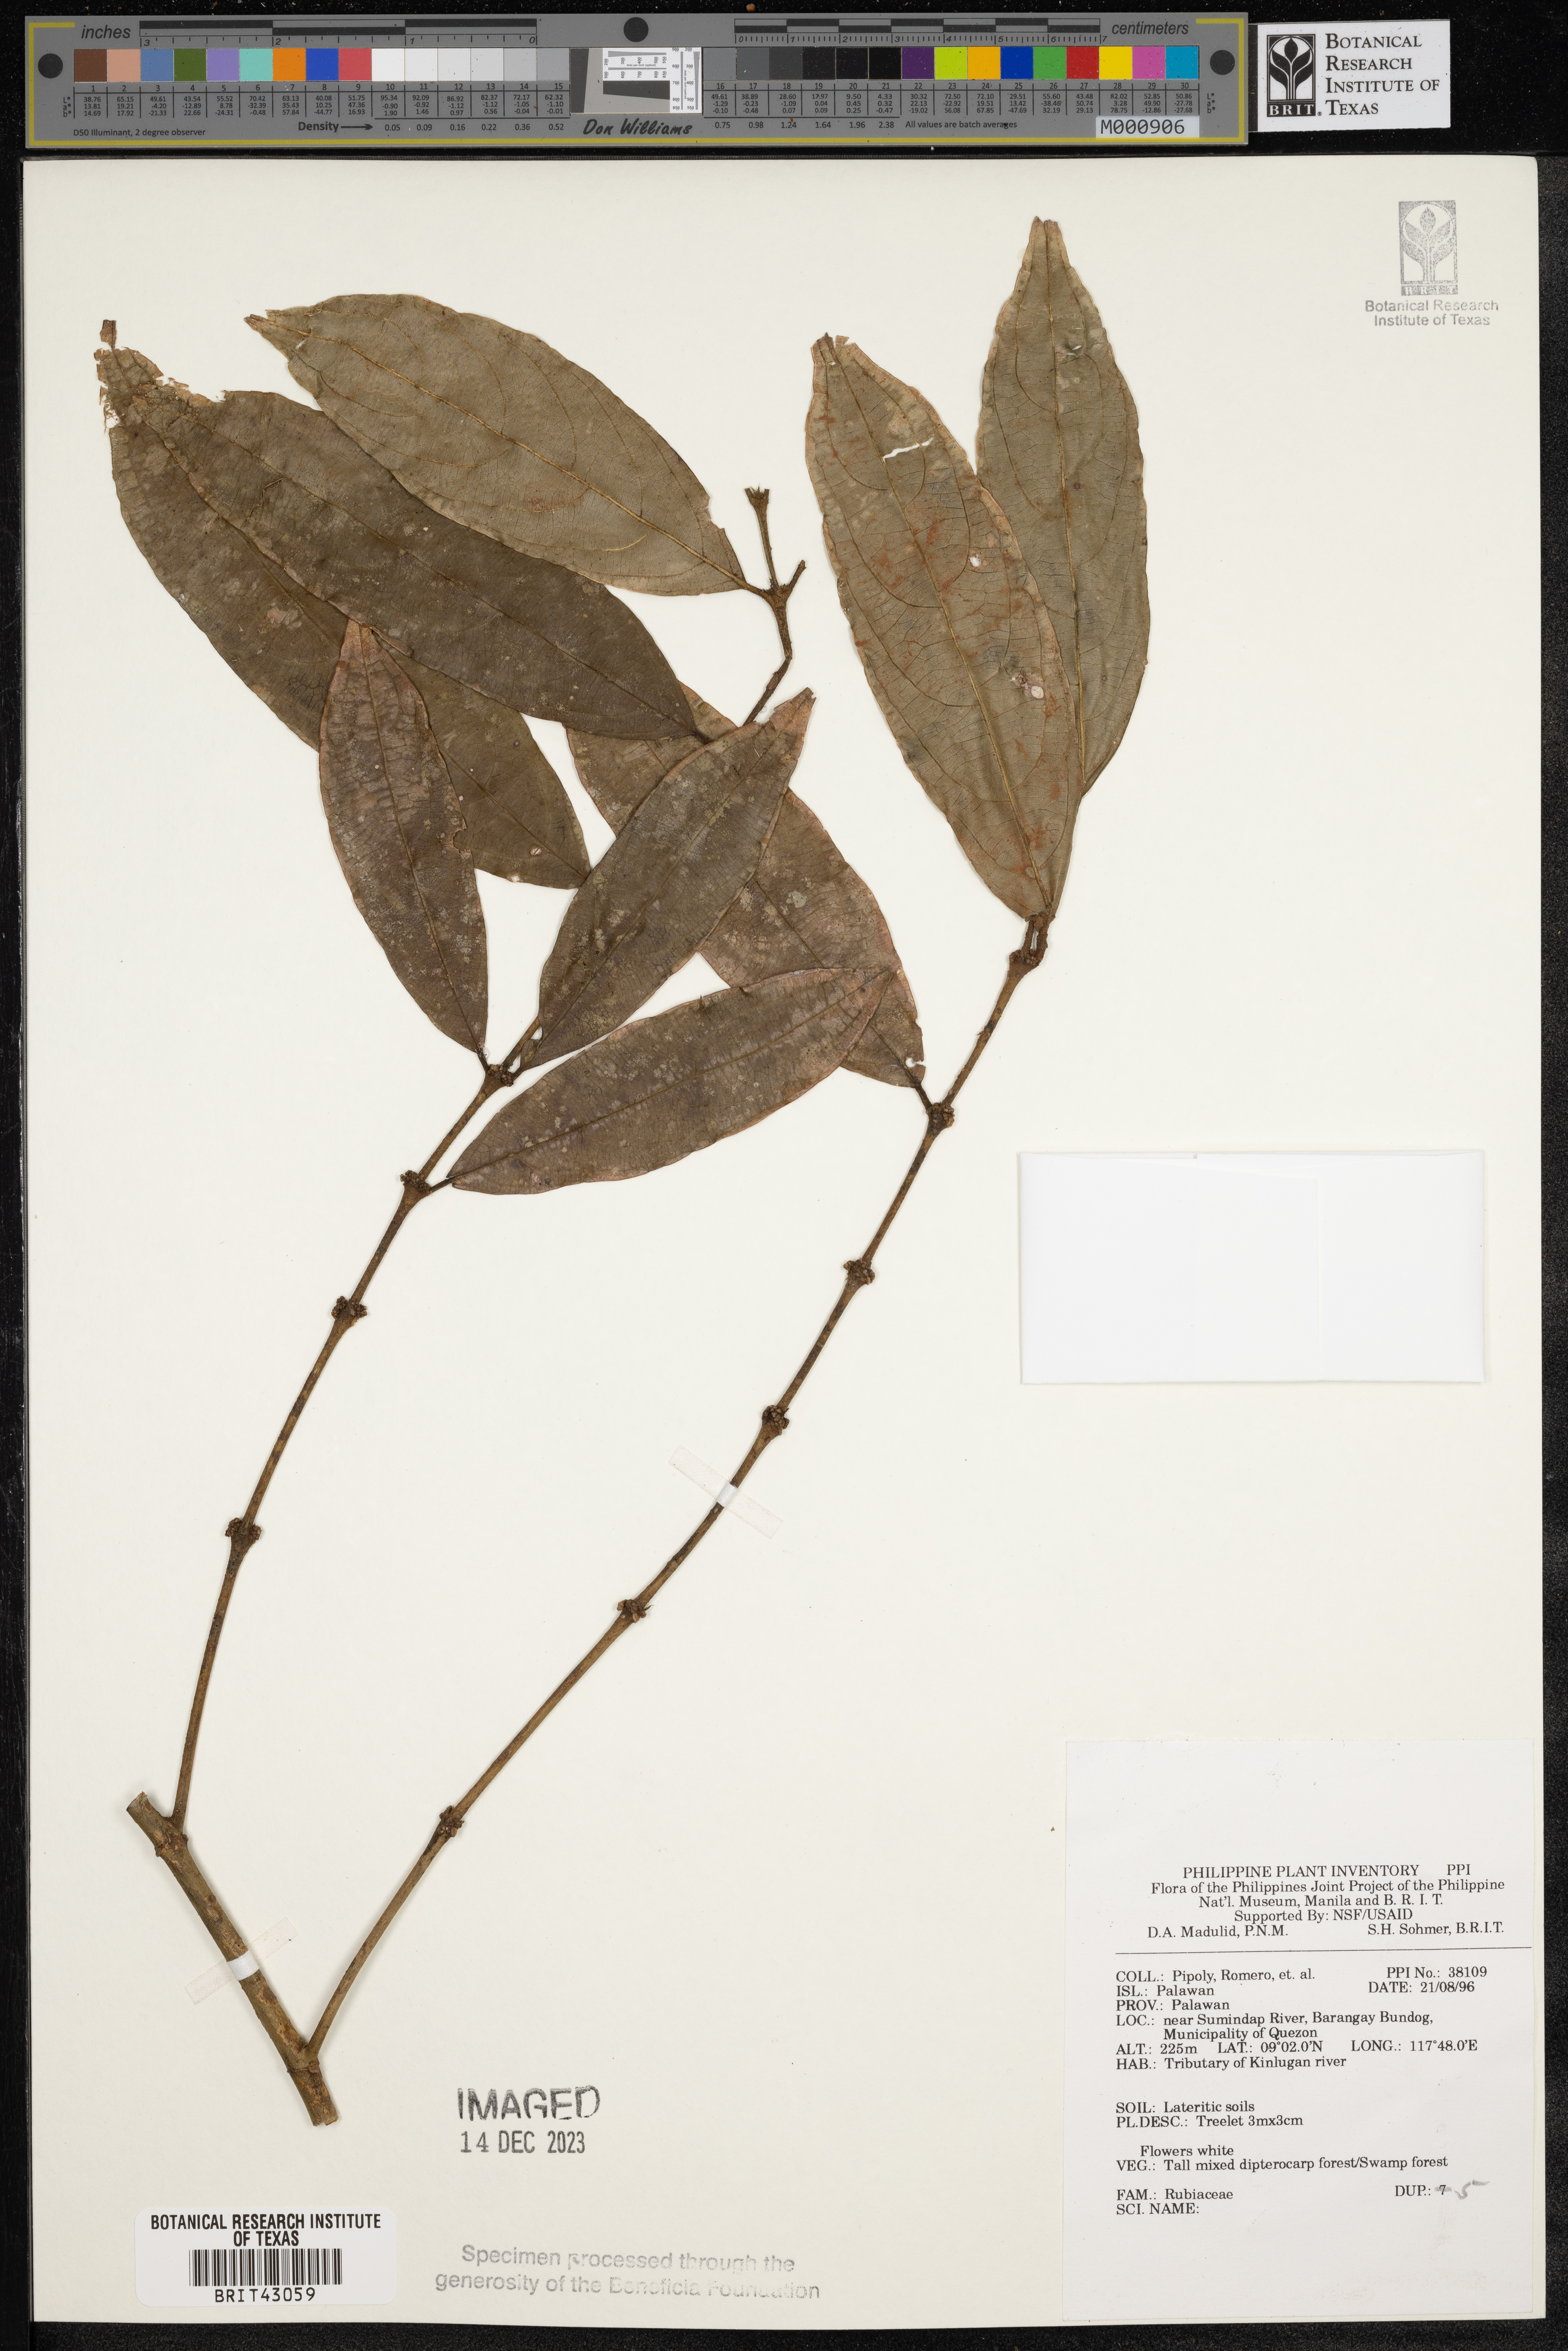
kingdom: Plantae
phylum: Tracheophyta
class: Magnoliopsida
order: Gentianales
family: Rubiaceae
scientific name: Rubiaceae
